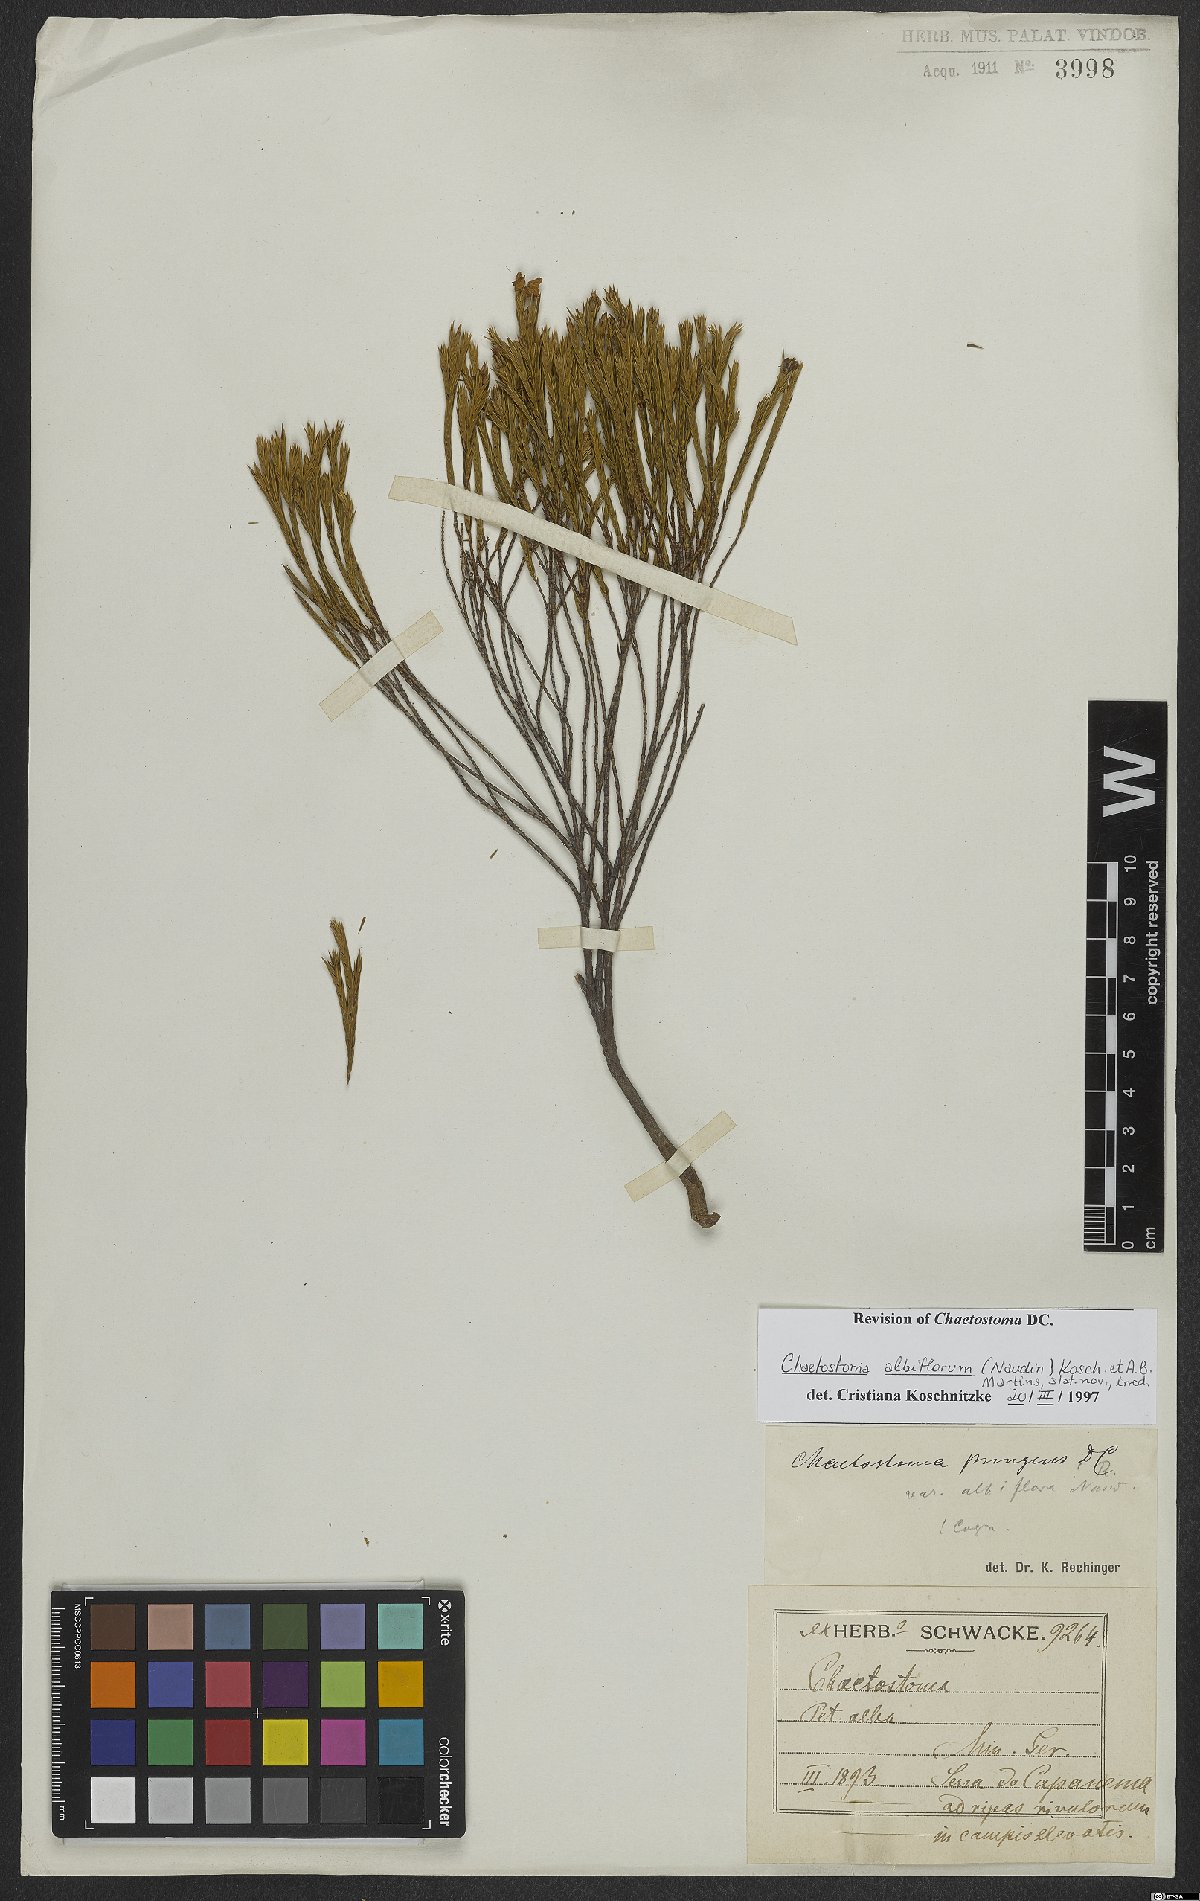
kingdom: Plantae
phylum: Tracheophyta
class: Magnoliopsida
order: Myrtales
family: Melastomataceae
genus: Microlicia
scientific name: Microlicia albiflora
